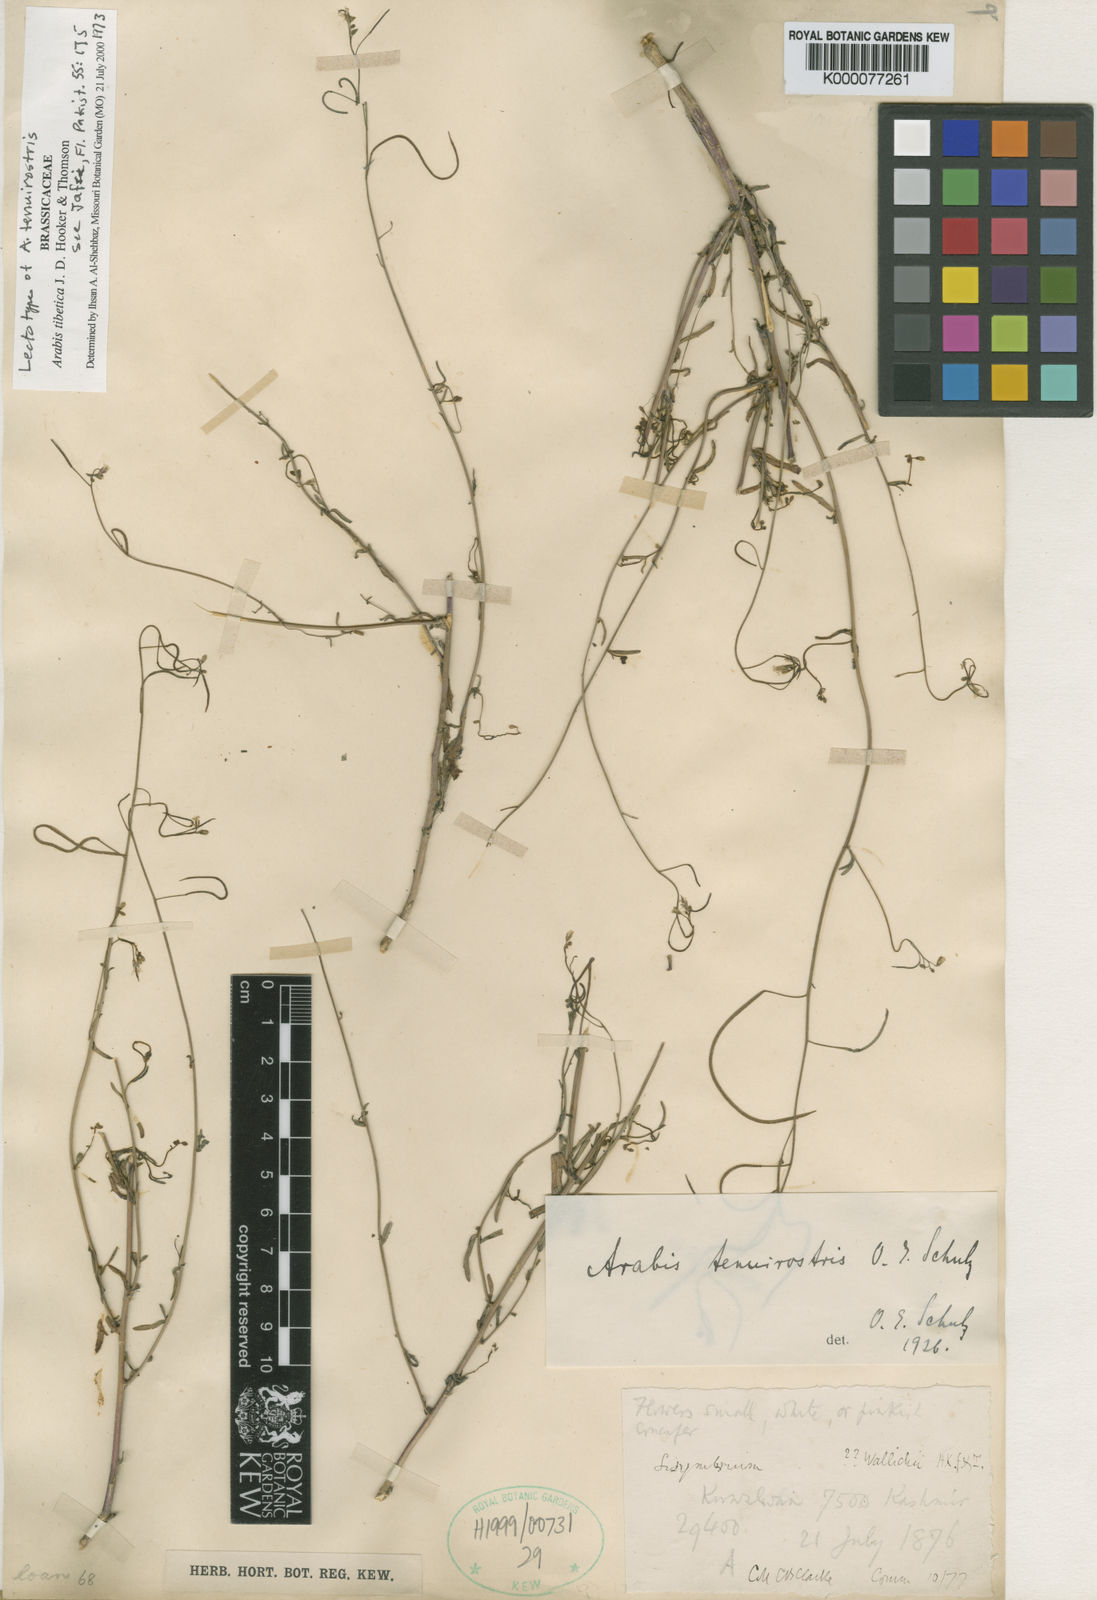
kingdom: Plantae
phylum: Tracheophyta
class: Magnoliopsida
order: Brassicales
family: Brassicaceae
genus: Crucihimalaya
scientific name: Crucihimalaya tibetica
